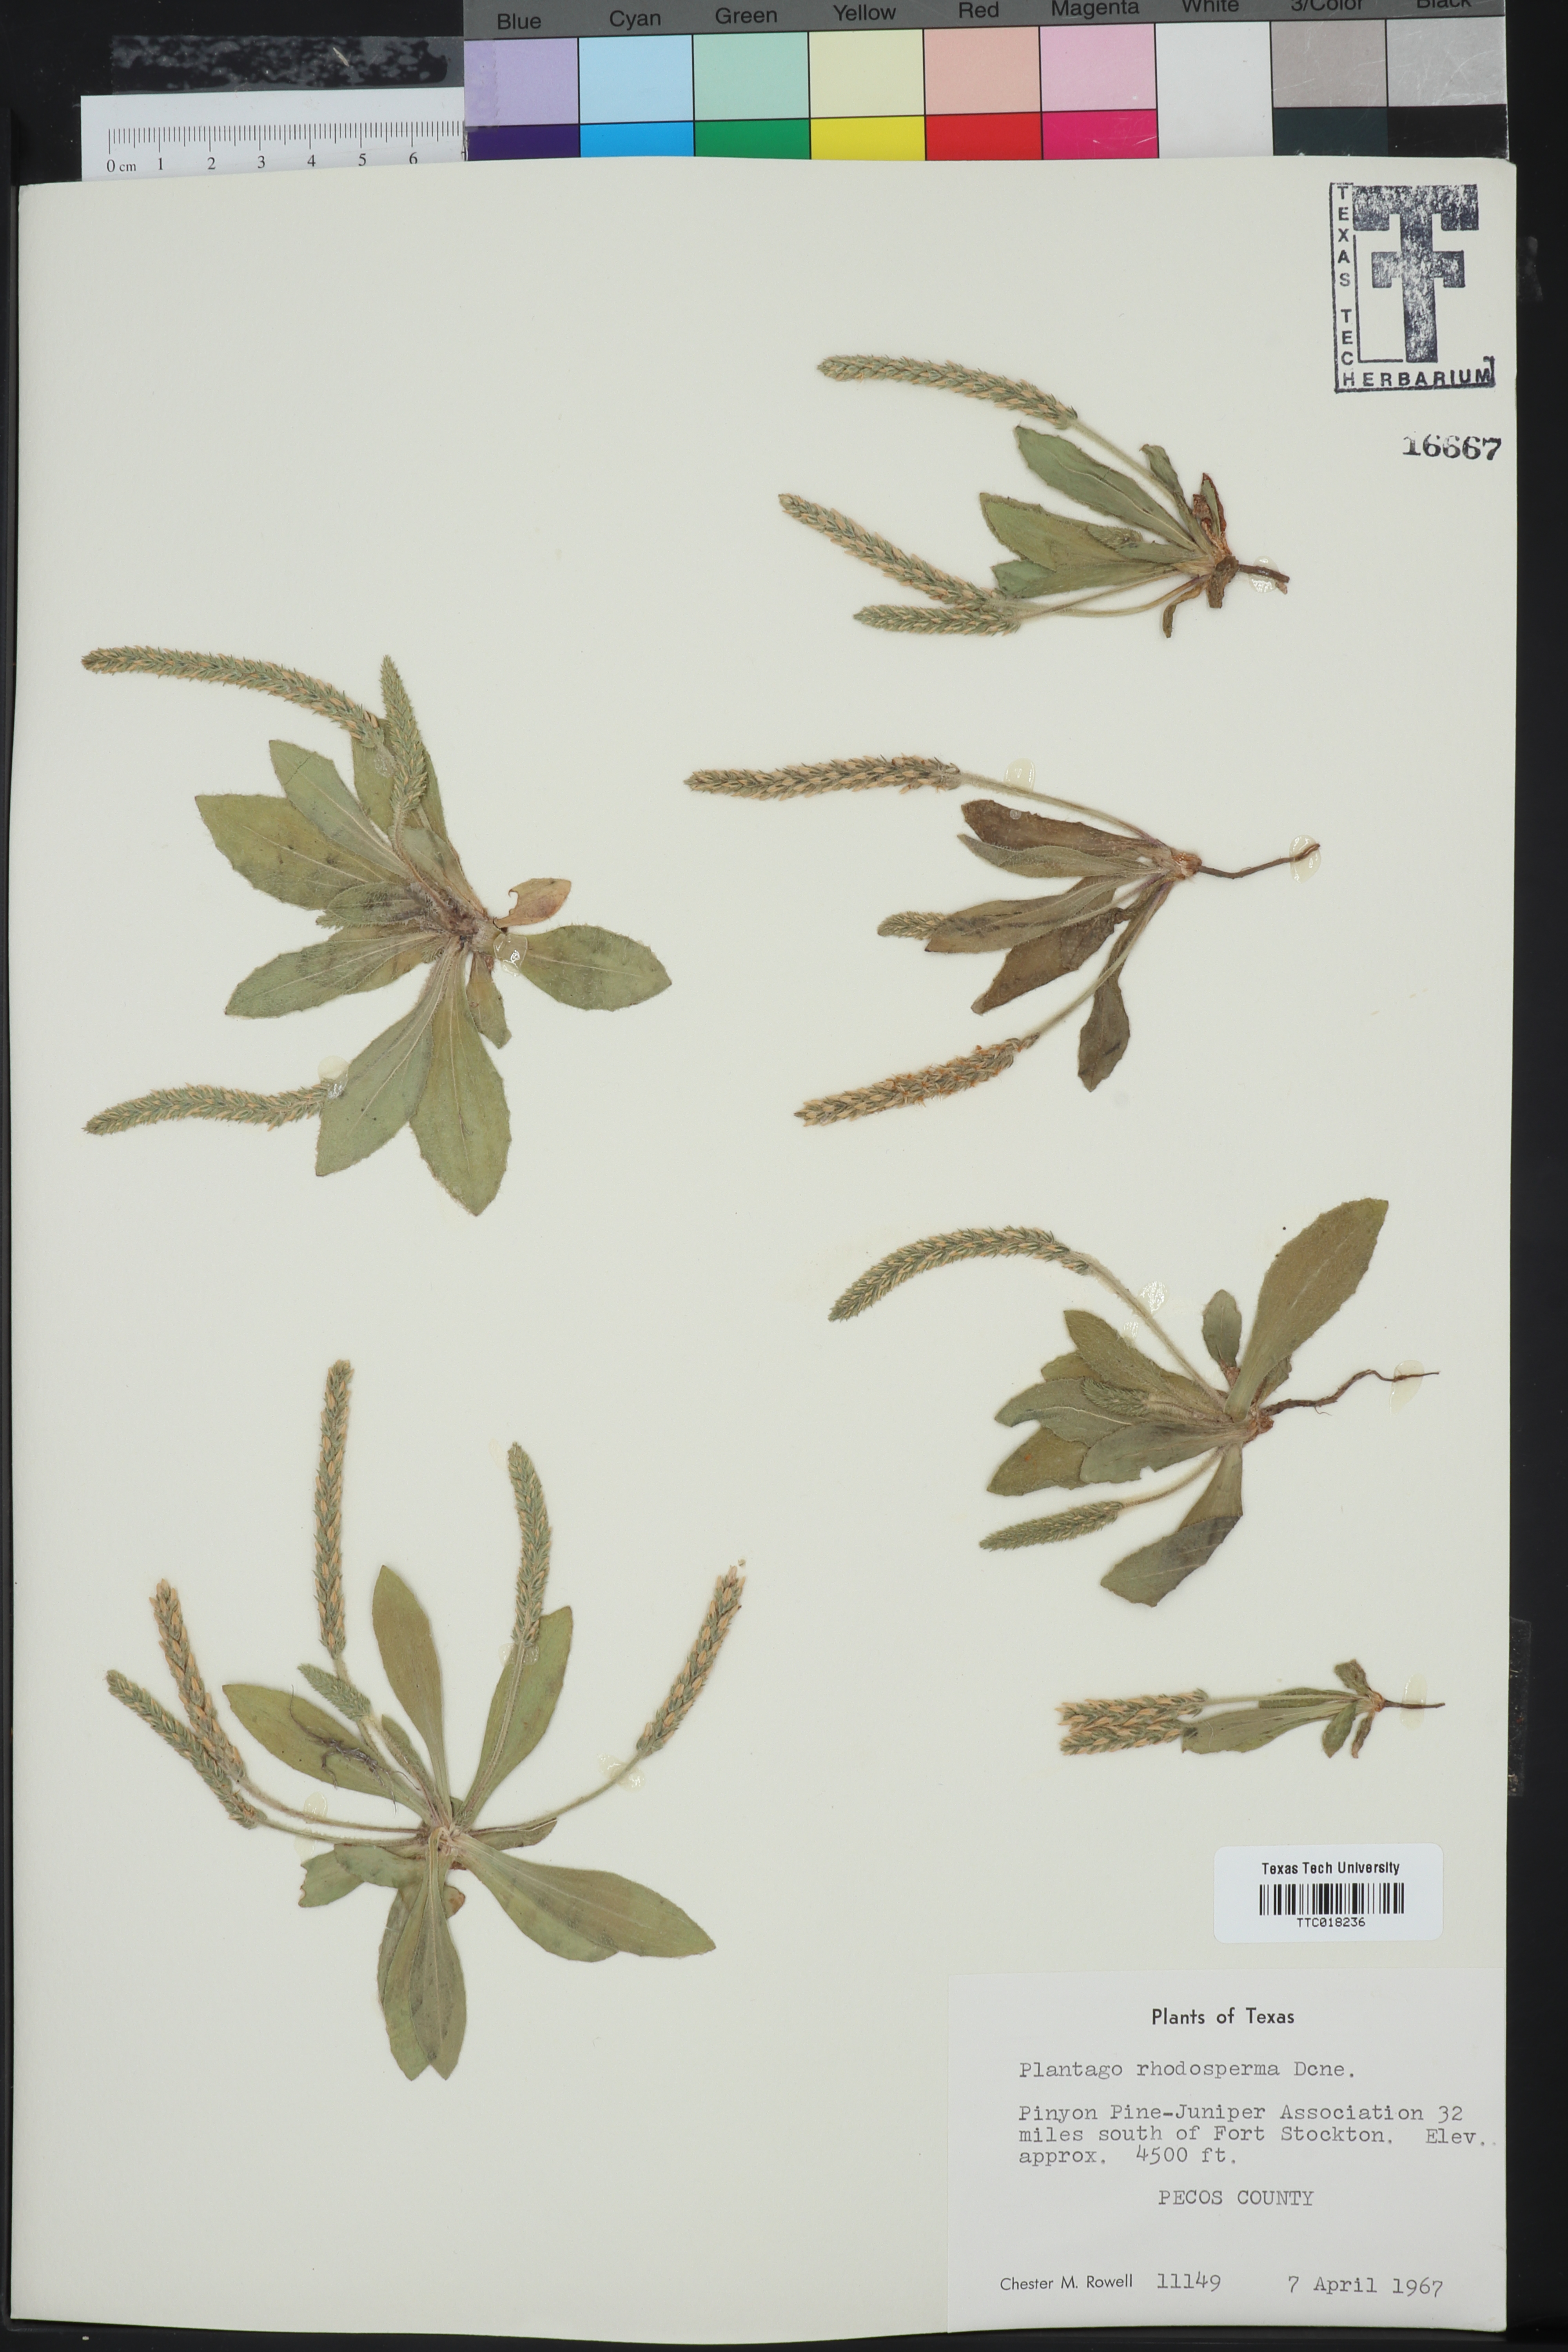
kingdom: Plantae
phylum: Tracheophyta
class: Magnoliopsida
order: Lamiales
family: Plantaginaceae
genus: Plantago
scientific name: Plantago rhodosperma
